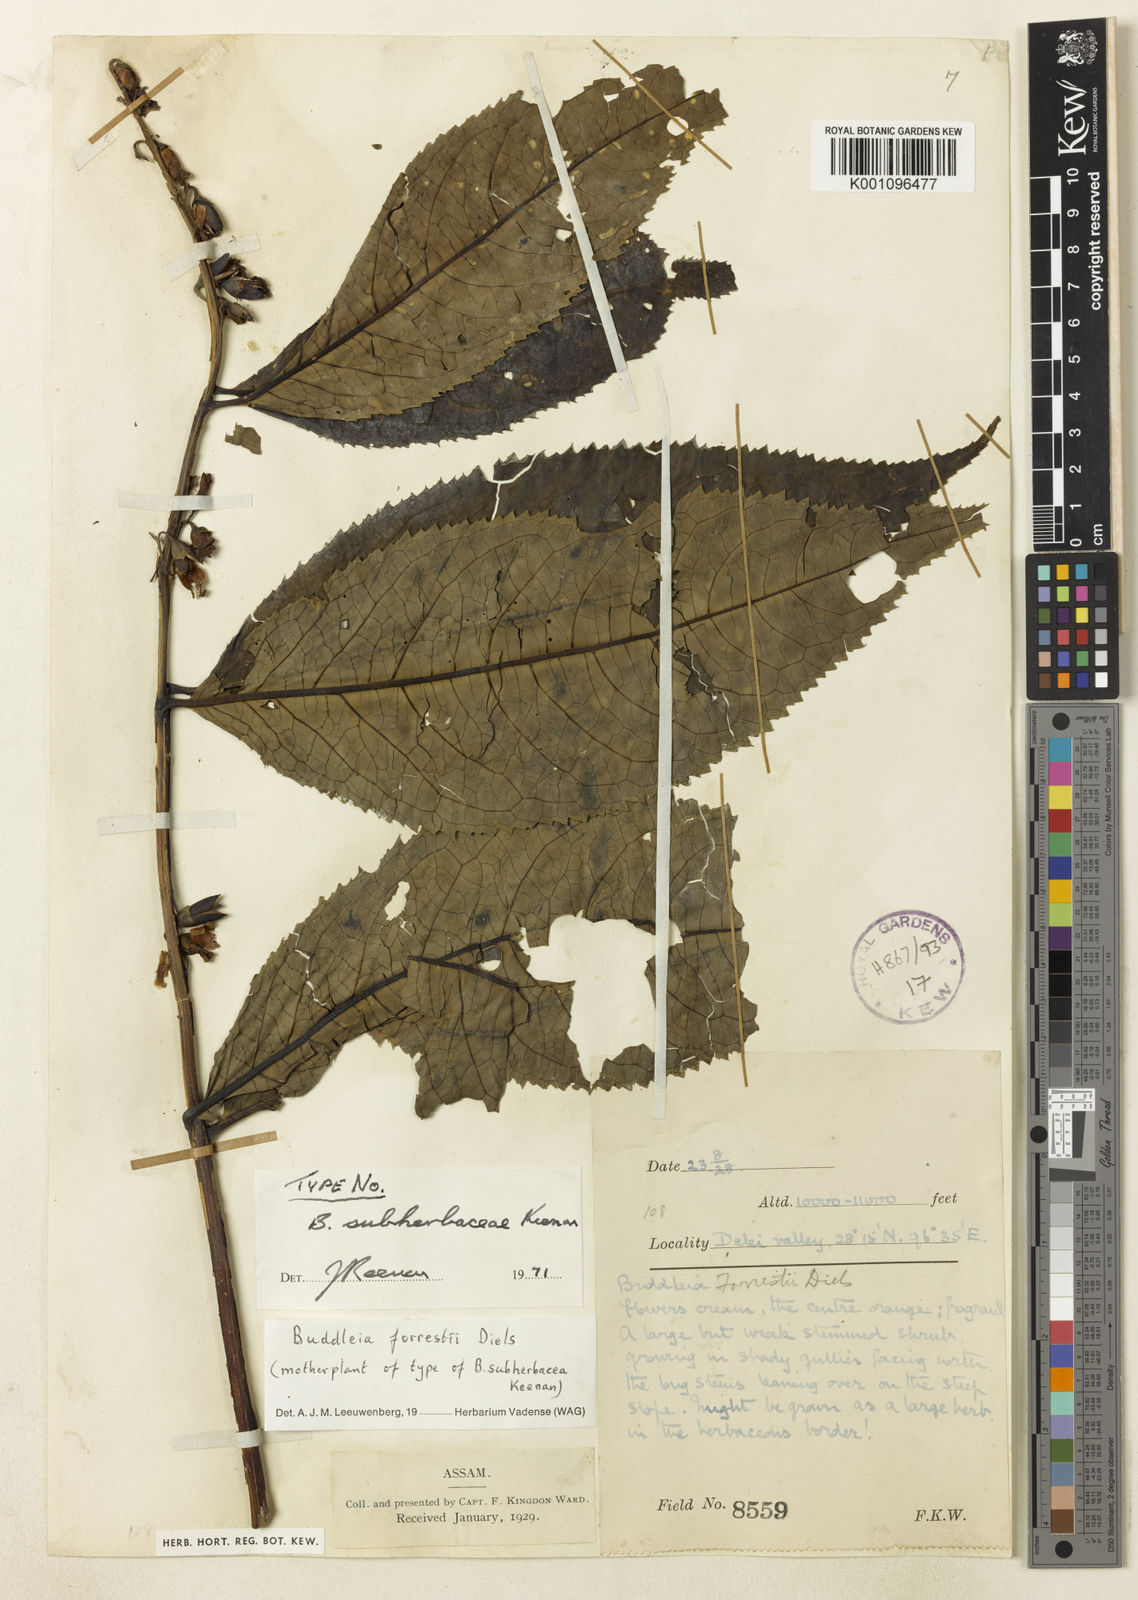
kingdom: Plantae
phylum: Tracheophyta
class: Magnoliopsida
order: Lamiales
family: Scrophulariaceae
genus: Buddleja
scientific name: Buddleja forrestii
